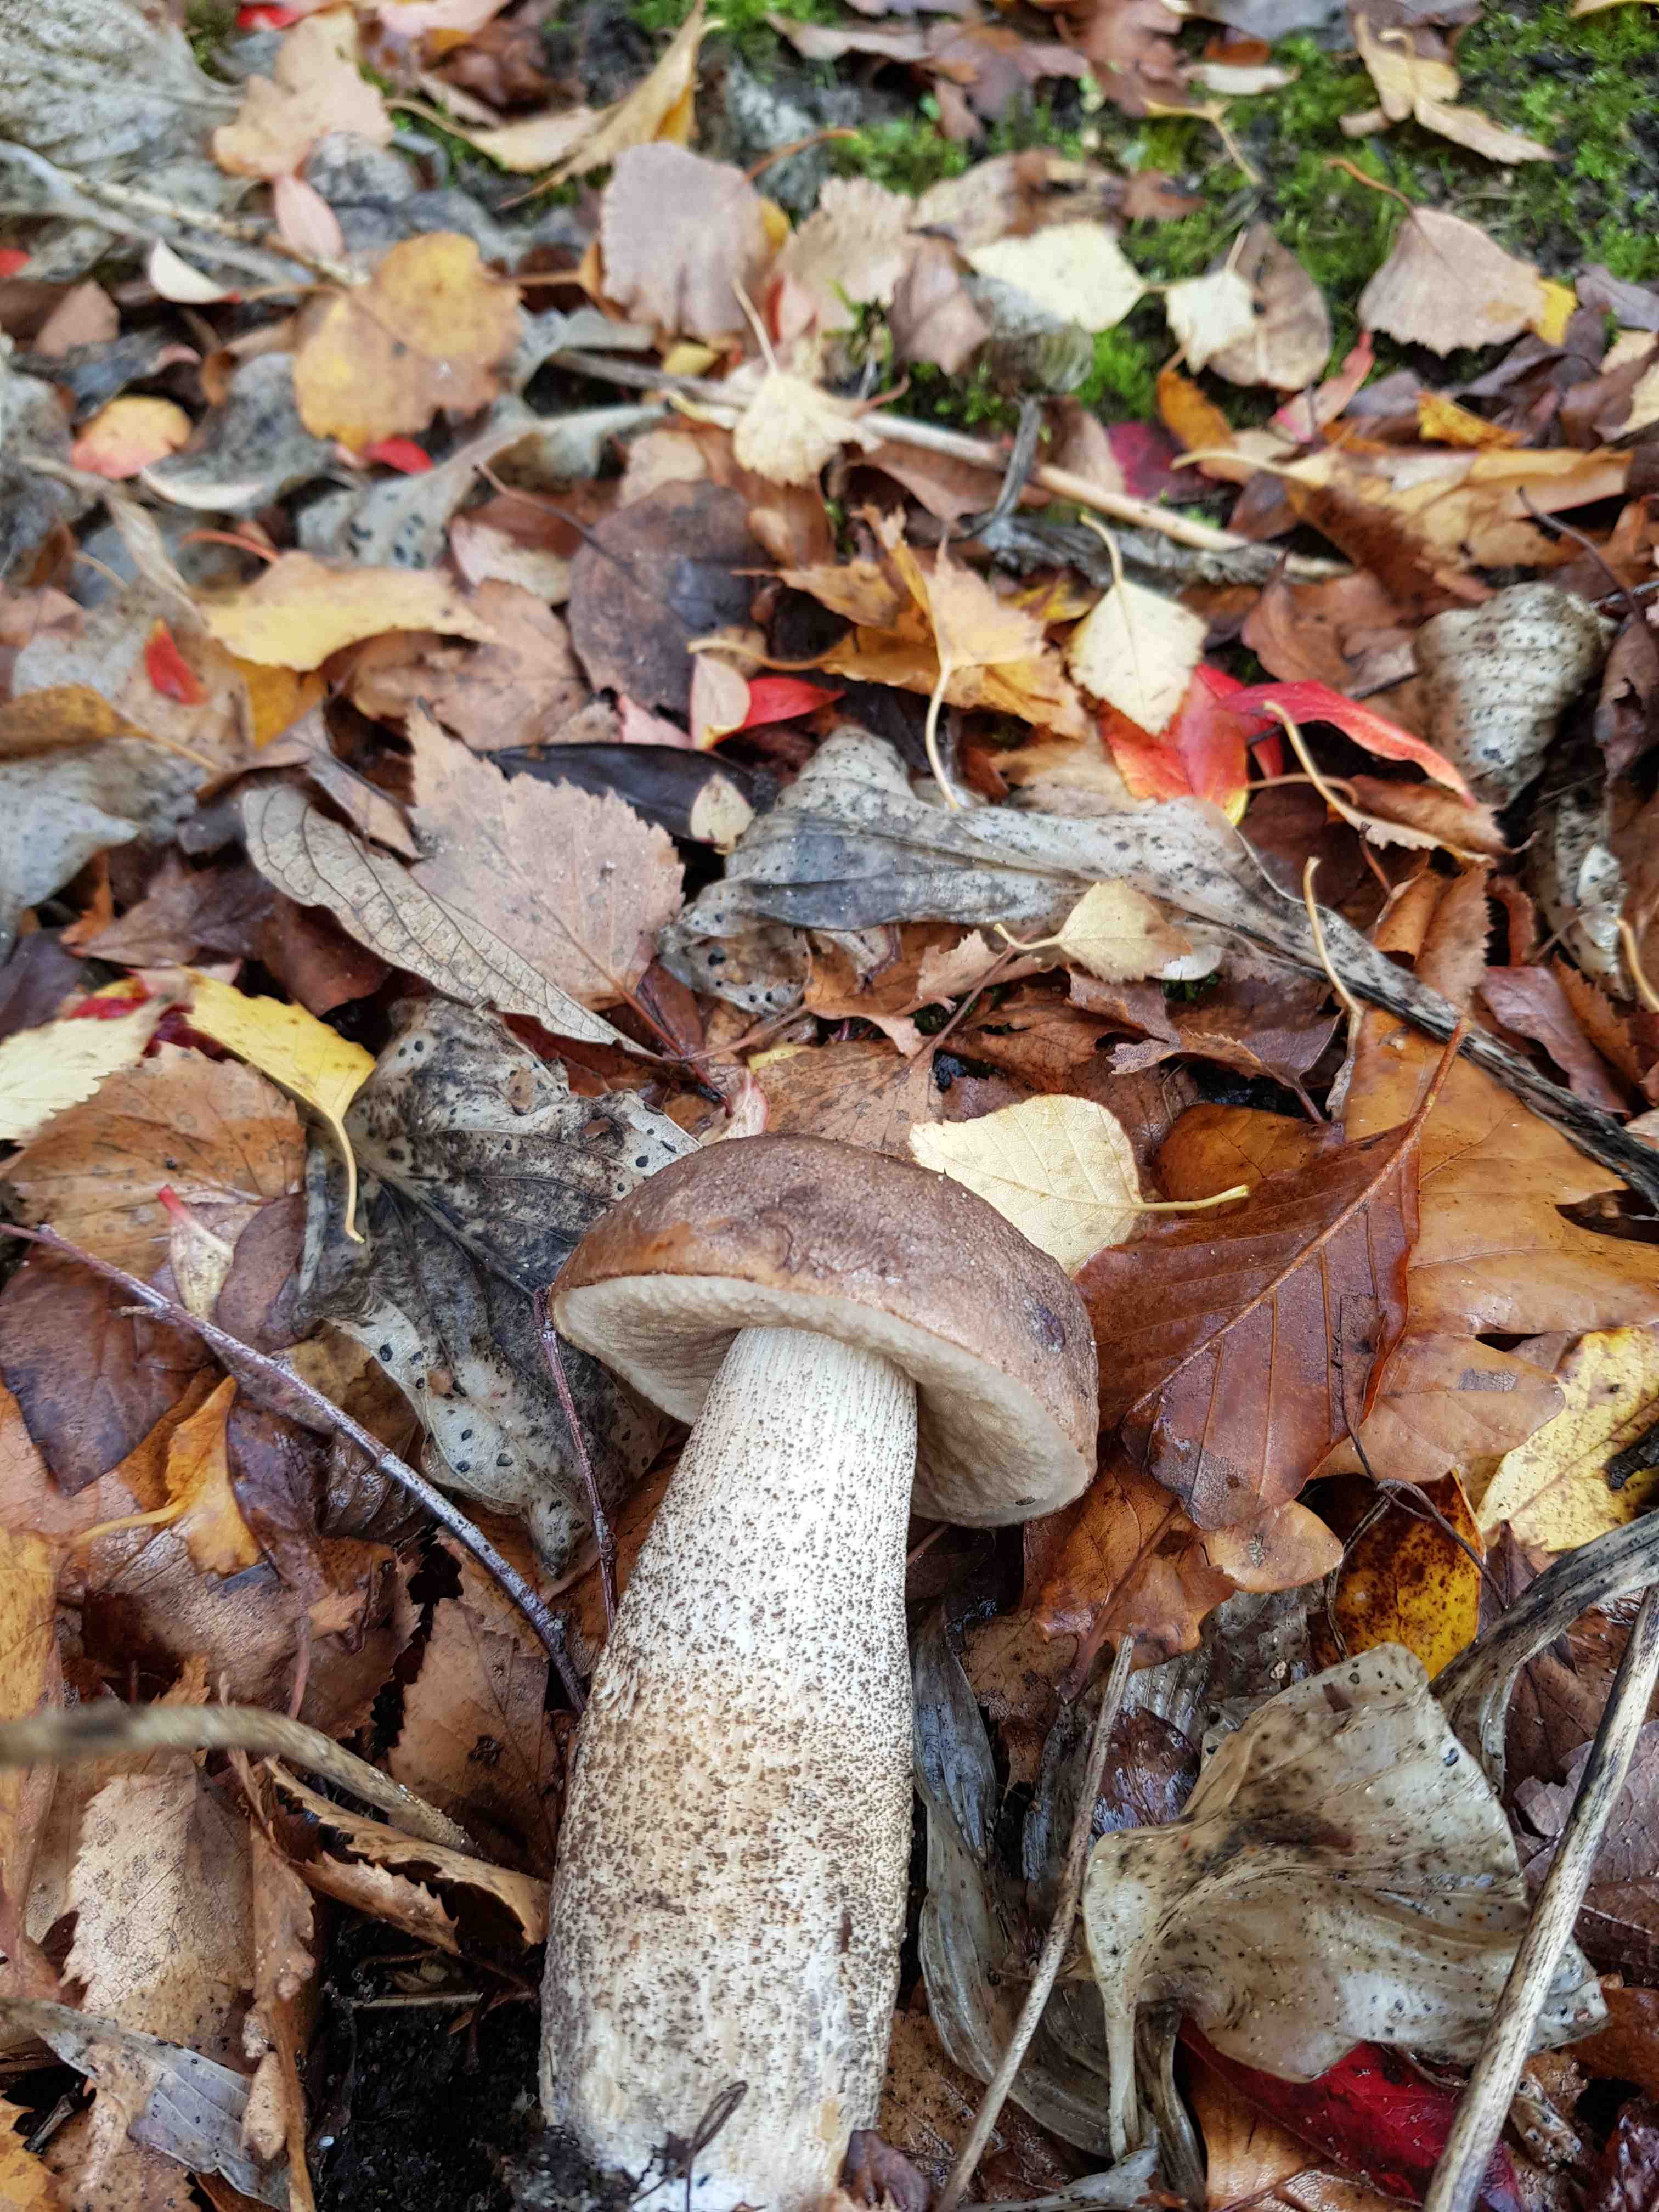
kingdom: Fungi
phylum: Basidiomycota
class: Agaricomycetes
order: Boletales
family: Boletaceae
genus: Leccinum
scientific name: Leccinum scabrum
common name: brun skælrørhat
